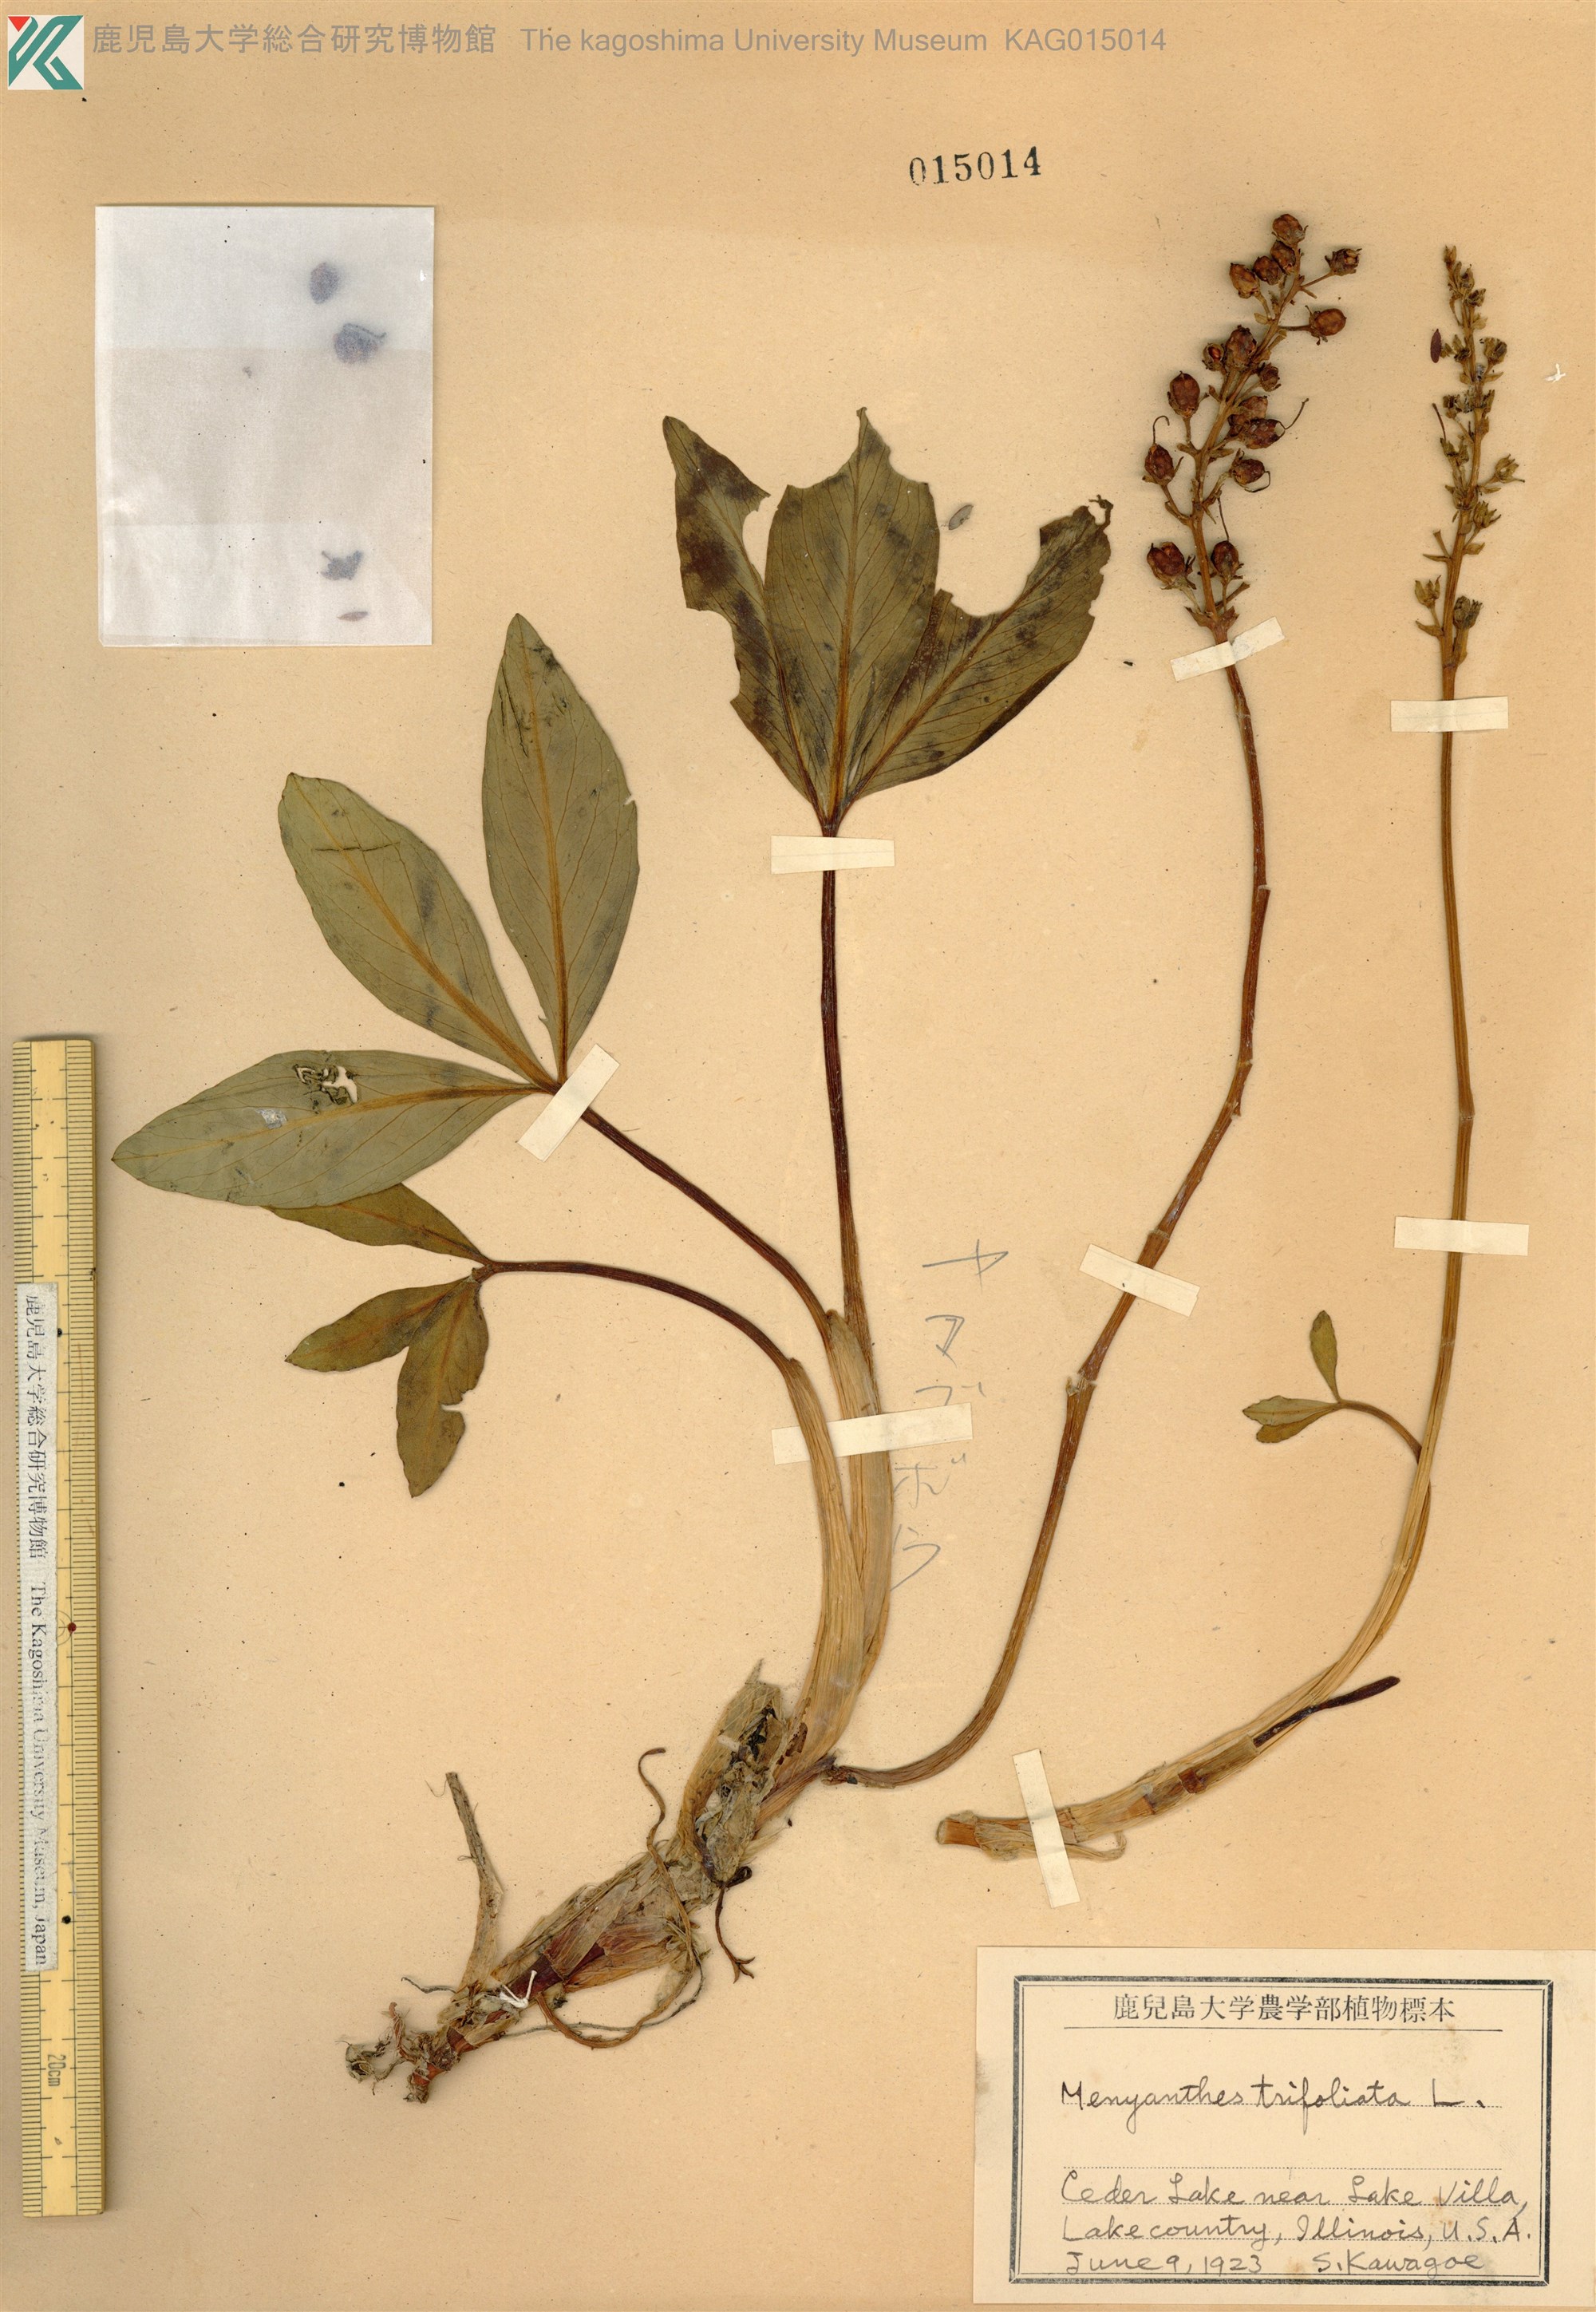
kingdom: Plantae
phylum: Tracheophyta
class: Magnoliopsida
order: Asterales
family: Menyanthaceae
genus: Menyanthes
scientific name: Menyanthes trifoliata
